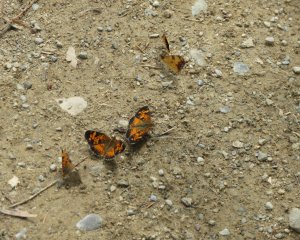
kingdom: Animalia
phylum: Arthropoda
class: Insecta
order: Lepidoptera
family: Nymphalidae
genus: Phyciodes
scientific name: Phyciodes tharos
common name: Northern Crescent
